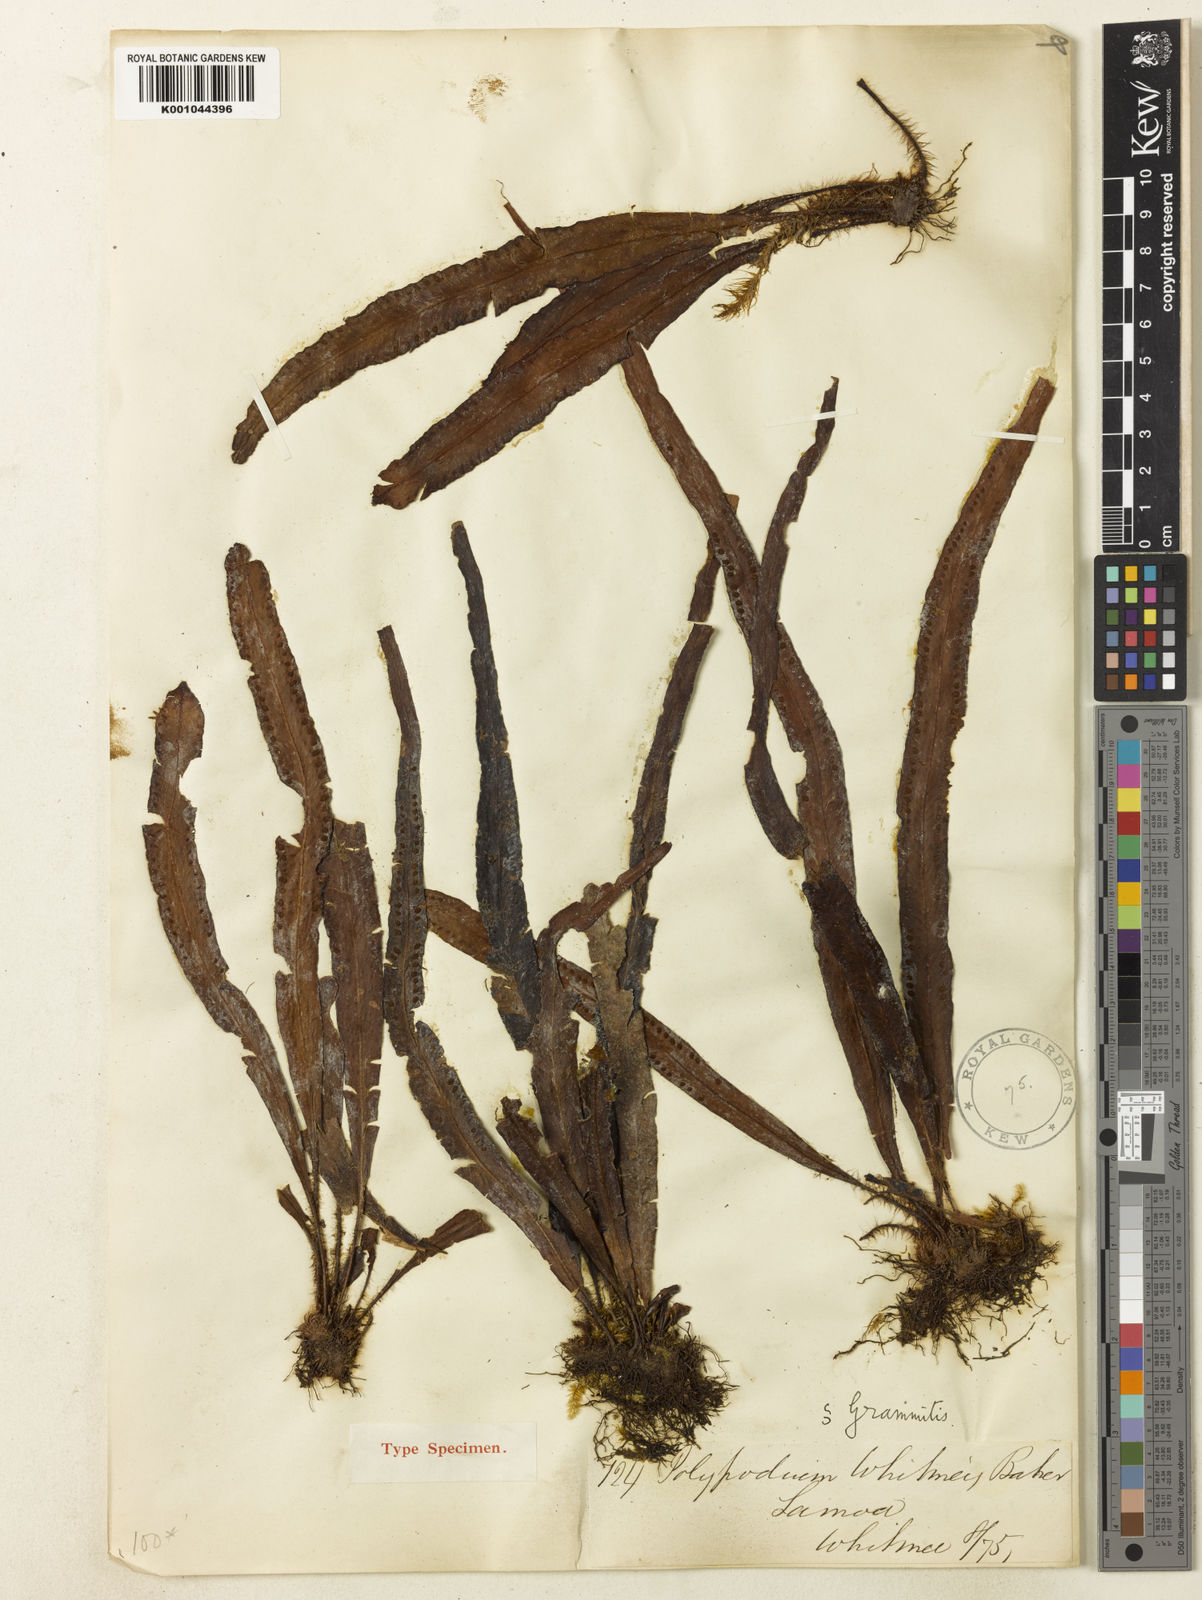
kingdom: Plantae
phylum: Tracheophyta
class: Polypodiopsida
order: Polypodiales
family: Polypodiaceae
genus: Oreogrammitis
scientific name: Oreogrammitis whitmeei
